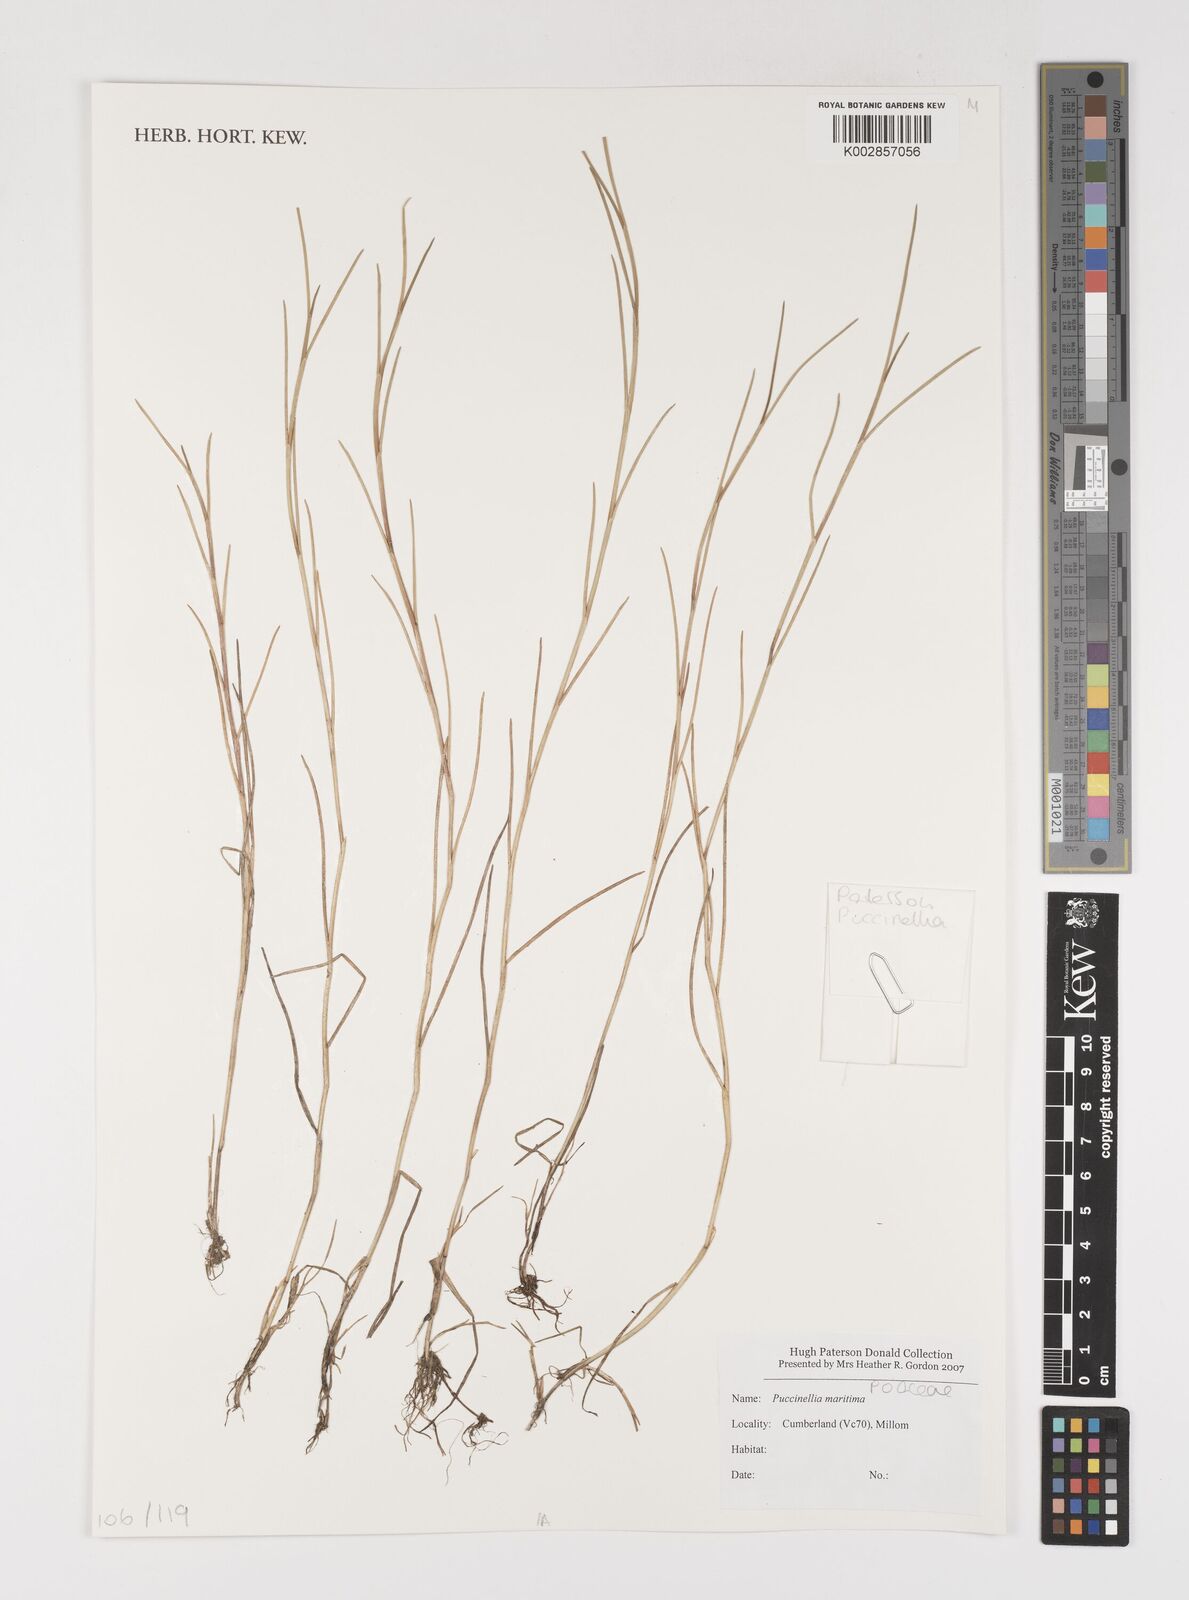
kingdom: Plantae
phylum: Tracheophyta
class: Liliopsida
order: Poales
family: Poaceae
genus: Puccinellia
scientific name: Puccinellia maritima
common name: Common saltmarsh grass
